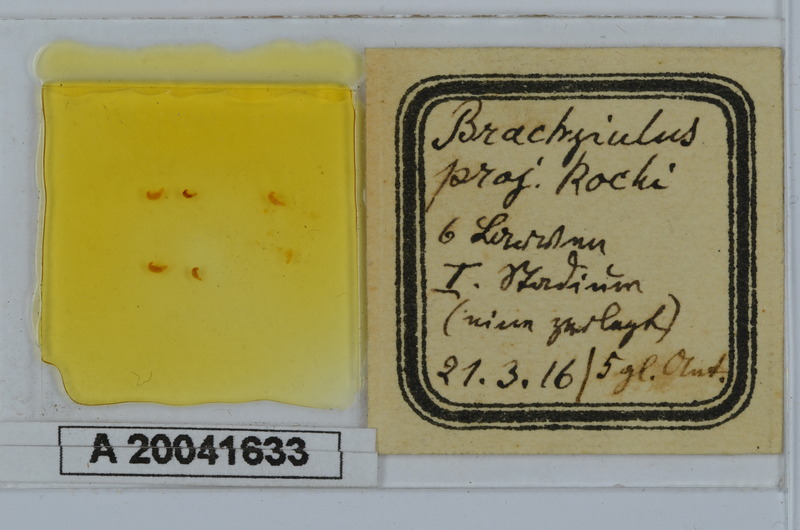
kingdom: Animalia
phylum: Arthropoda
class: Diplopoda
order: Julida
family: Julidae
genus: Megaphyllum
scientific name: Megaphyllum projectum
